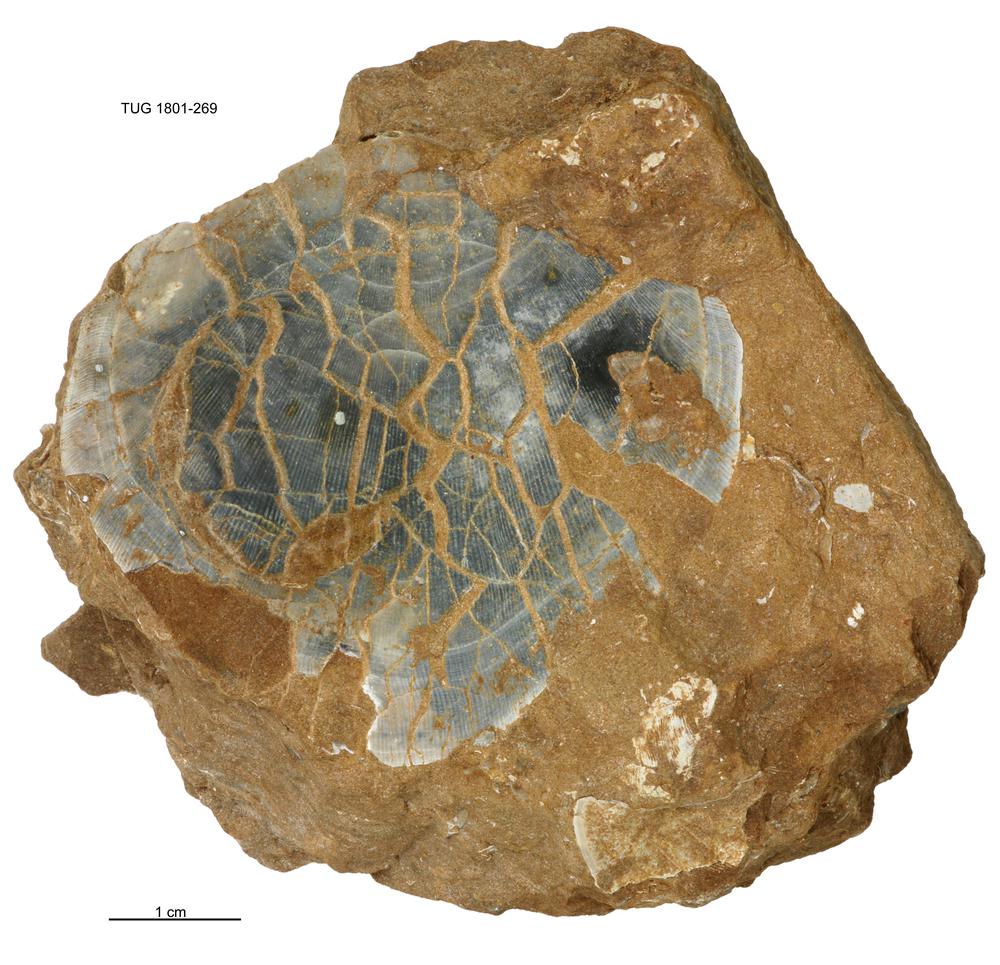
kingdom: Animalia
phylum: Brachiopoda
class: Rhynchonellata
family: Porambonitidae
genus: Porambonites
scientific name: Porambonites
